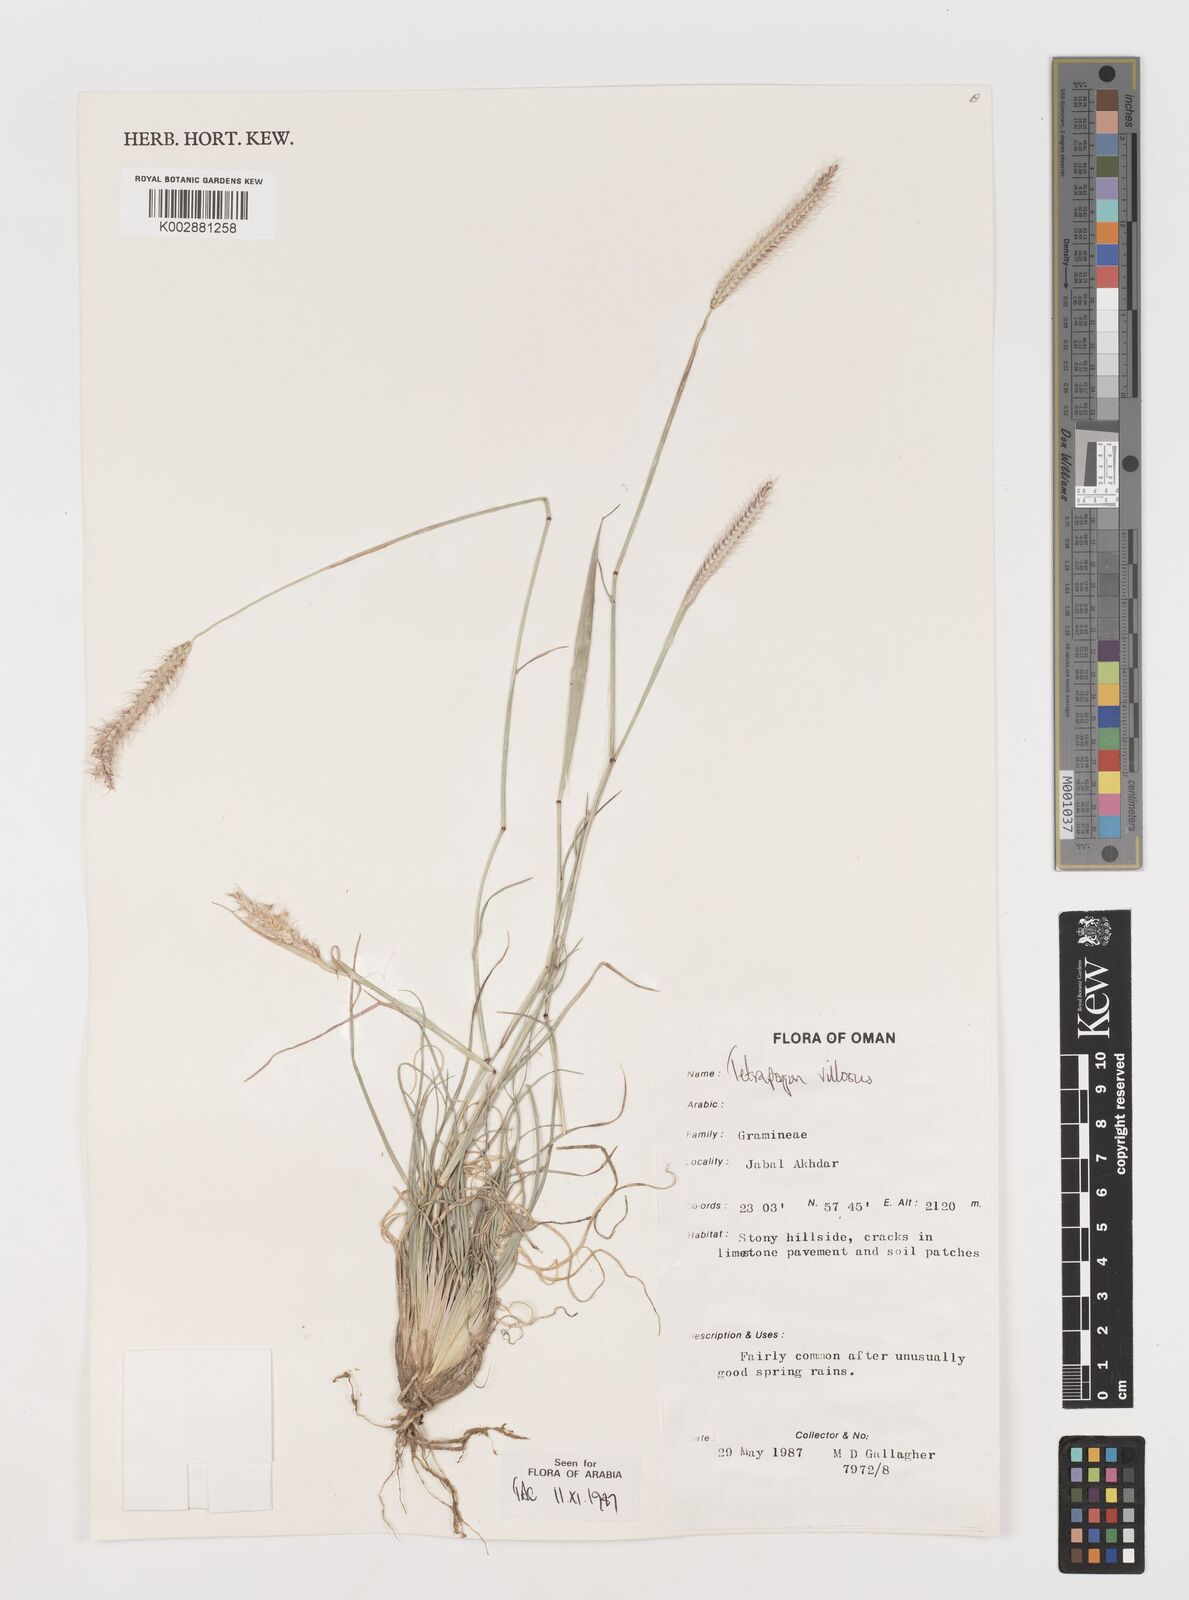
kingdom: Plantae
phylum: Tracheophyta
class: Liliopsida
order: Poales
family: Poaceae
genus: Tetrapogon
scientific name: Tetrapogon villosus
